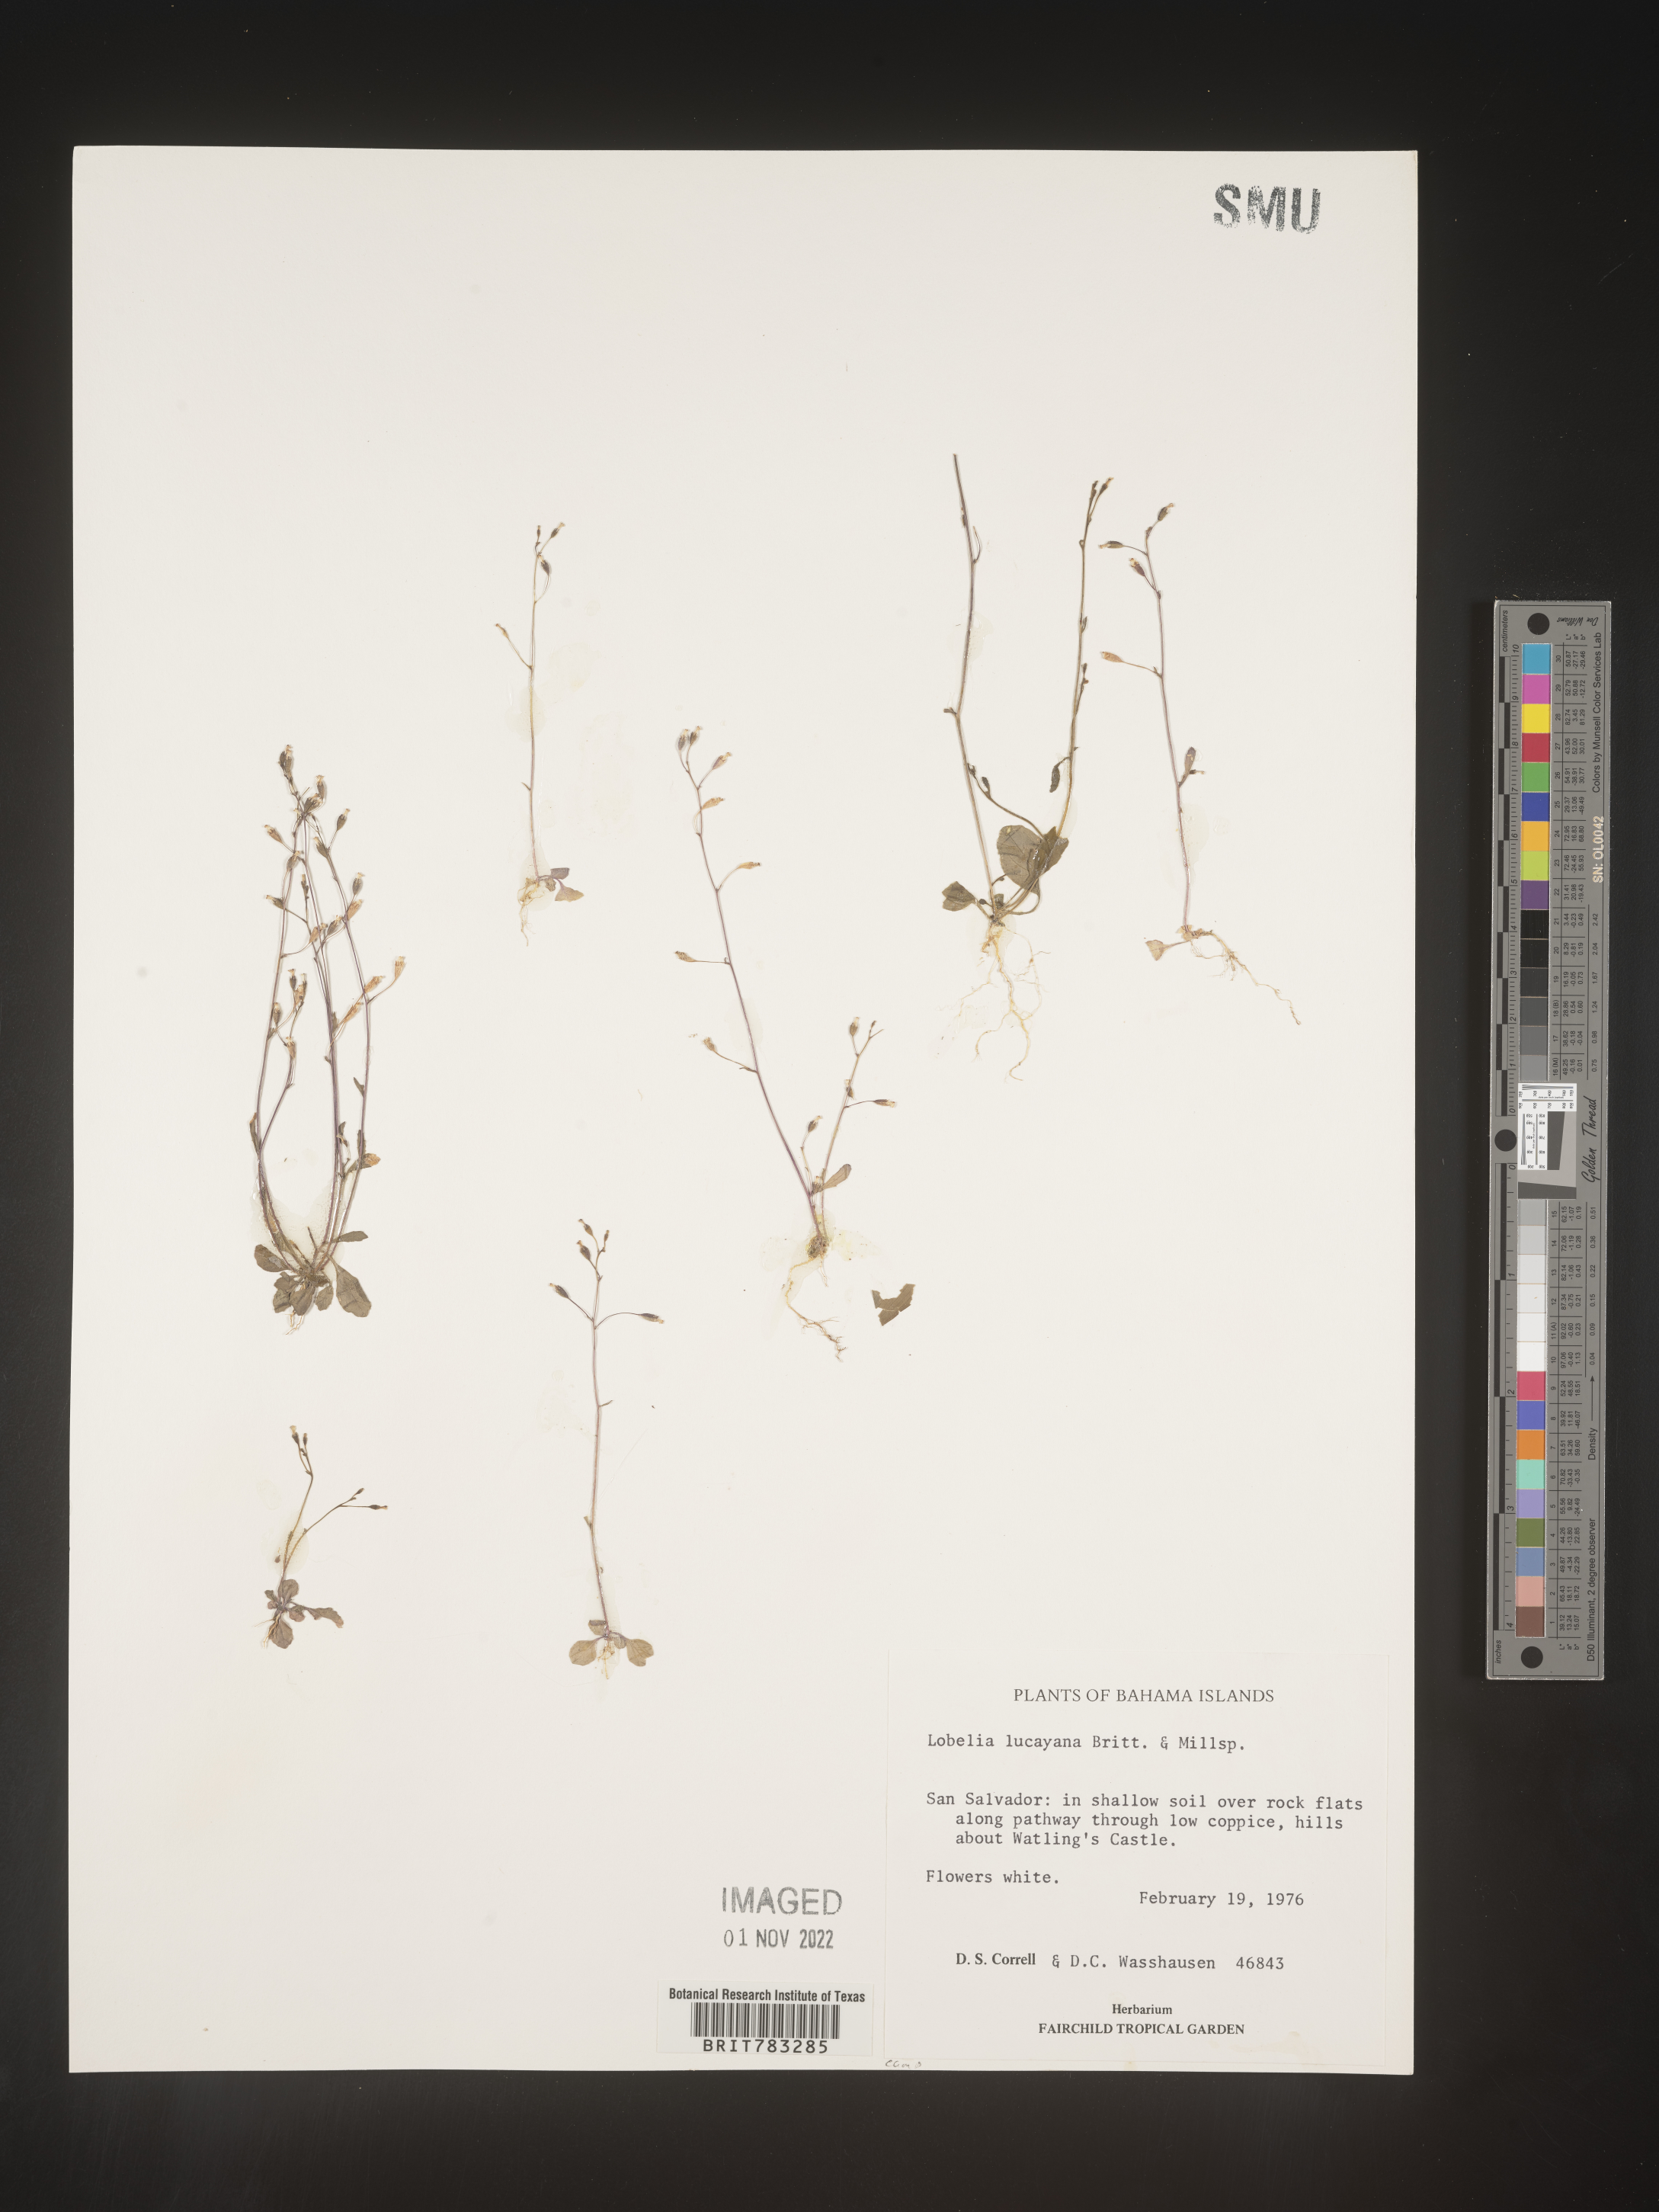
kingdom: Plantae
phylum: Tracheophyta
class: Magnoliopsida
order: Asterales
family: Campanulaceae
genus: Lobelia
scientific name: Lobelia
